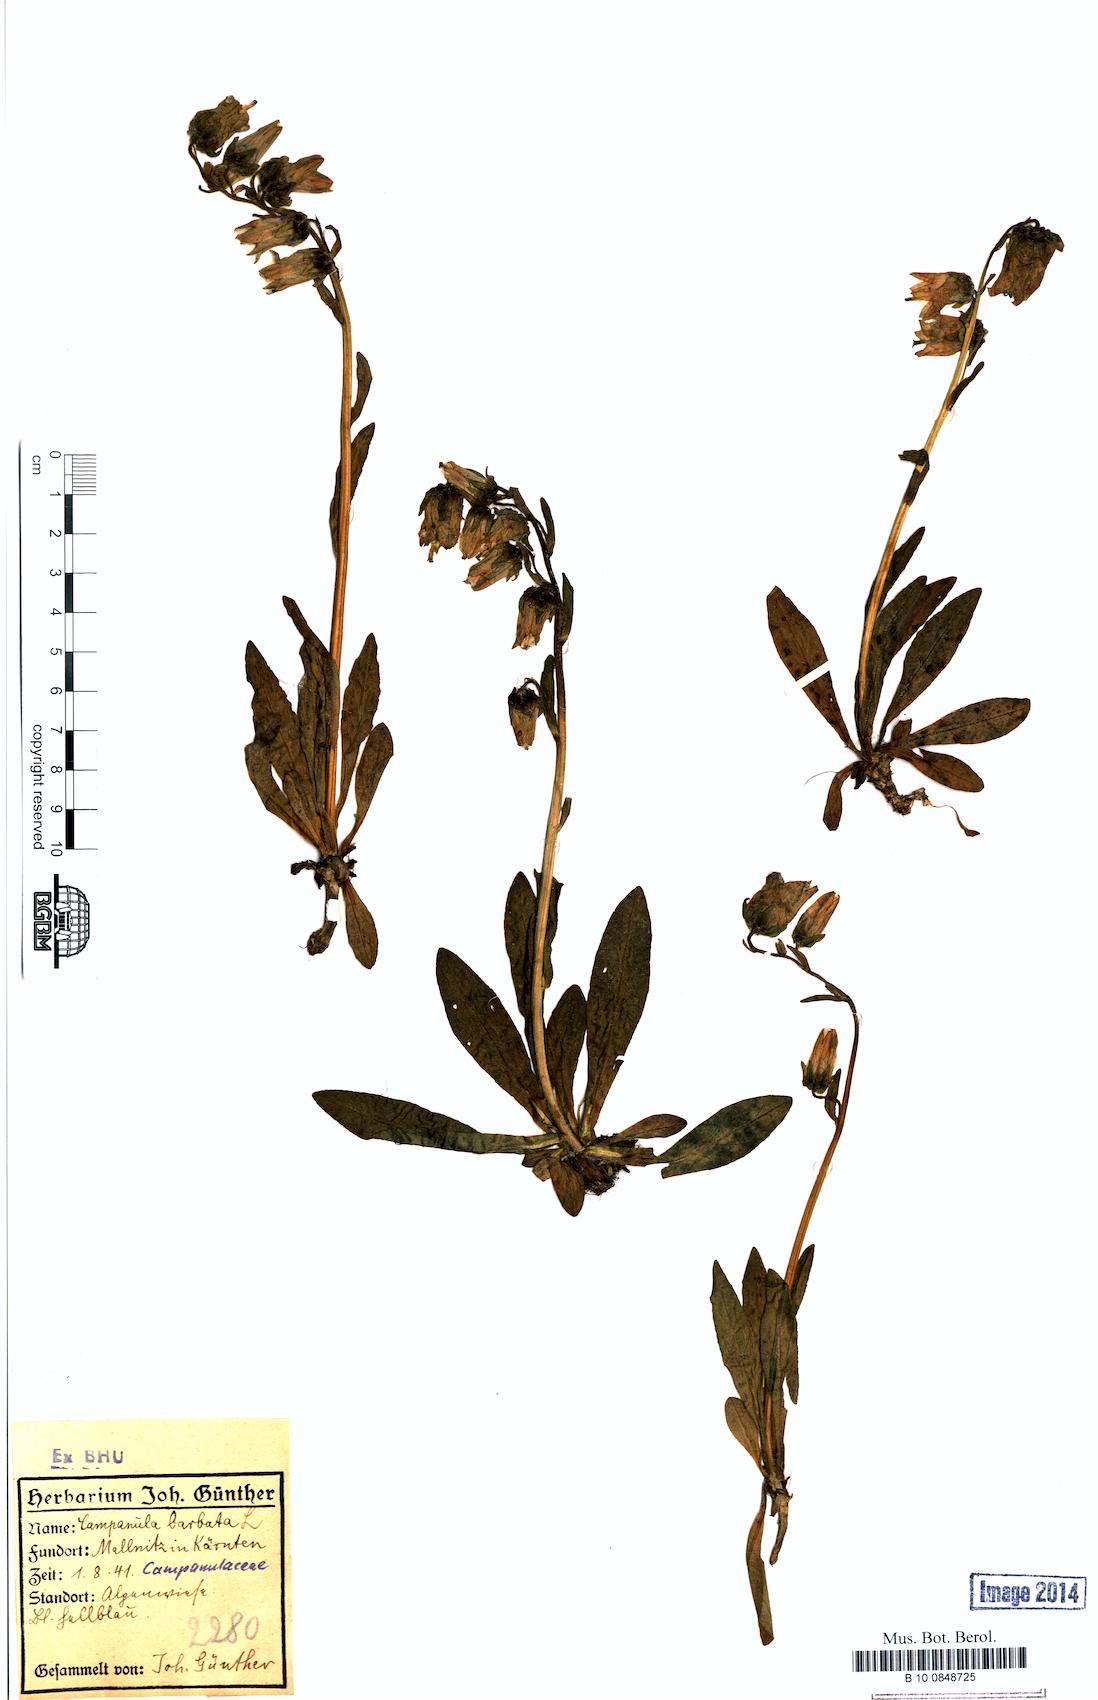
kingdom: Plantae
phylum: Tracheophyta
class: Magnoliopsida
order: Asterales
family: Campanulaceae
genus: Campanula
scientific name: Campanula barbata
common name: Bearded bellflower
